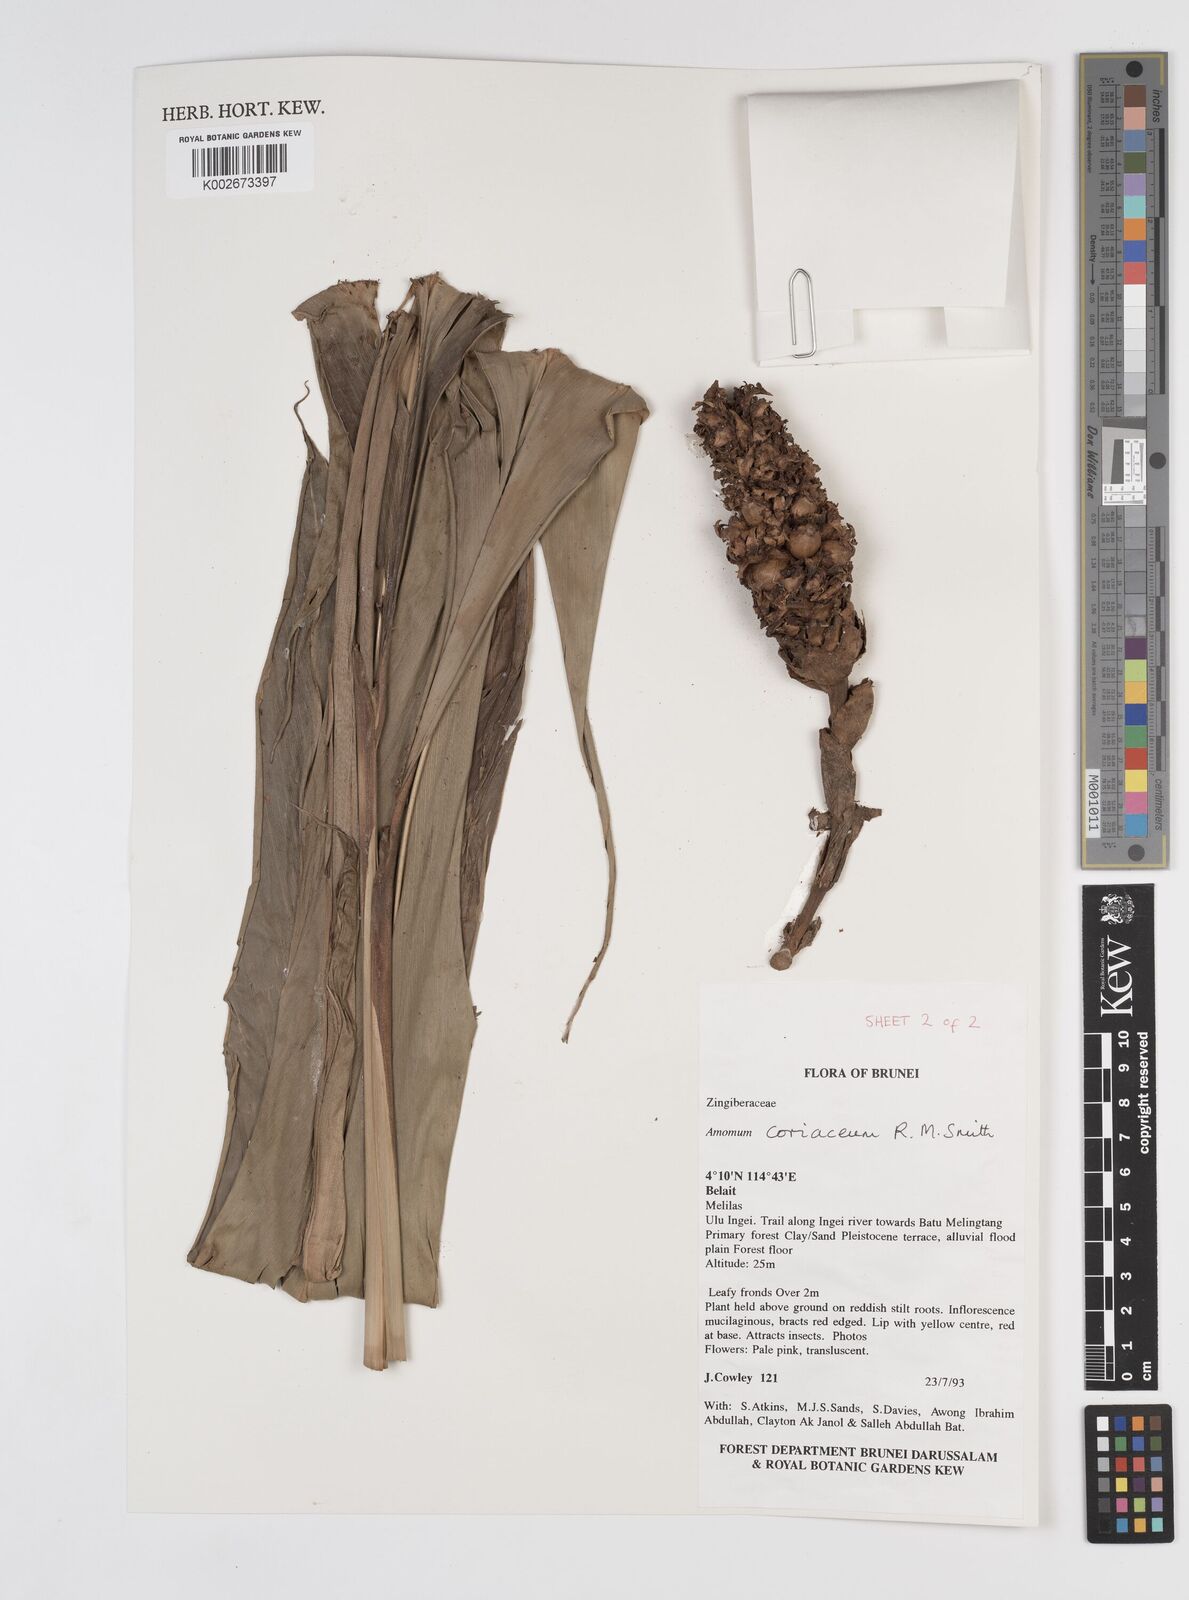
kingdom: Plantae
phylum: Tracheophyta
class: Liliopsida
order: Zingiberales
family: Zingiberaceae
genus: Conamomum
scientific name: Conamomum cylindrostachys
